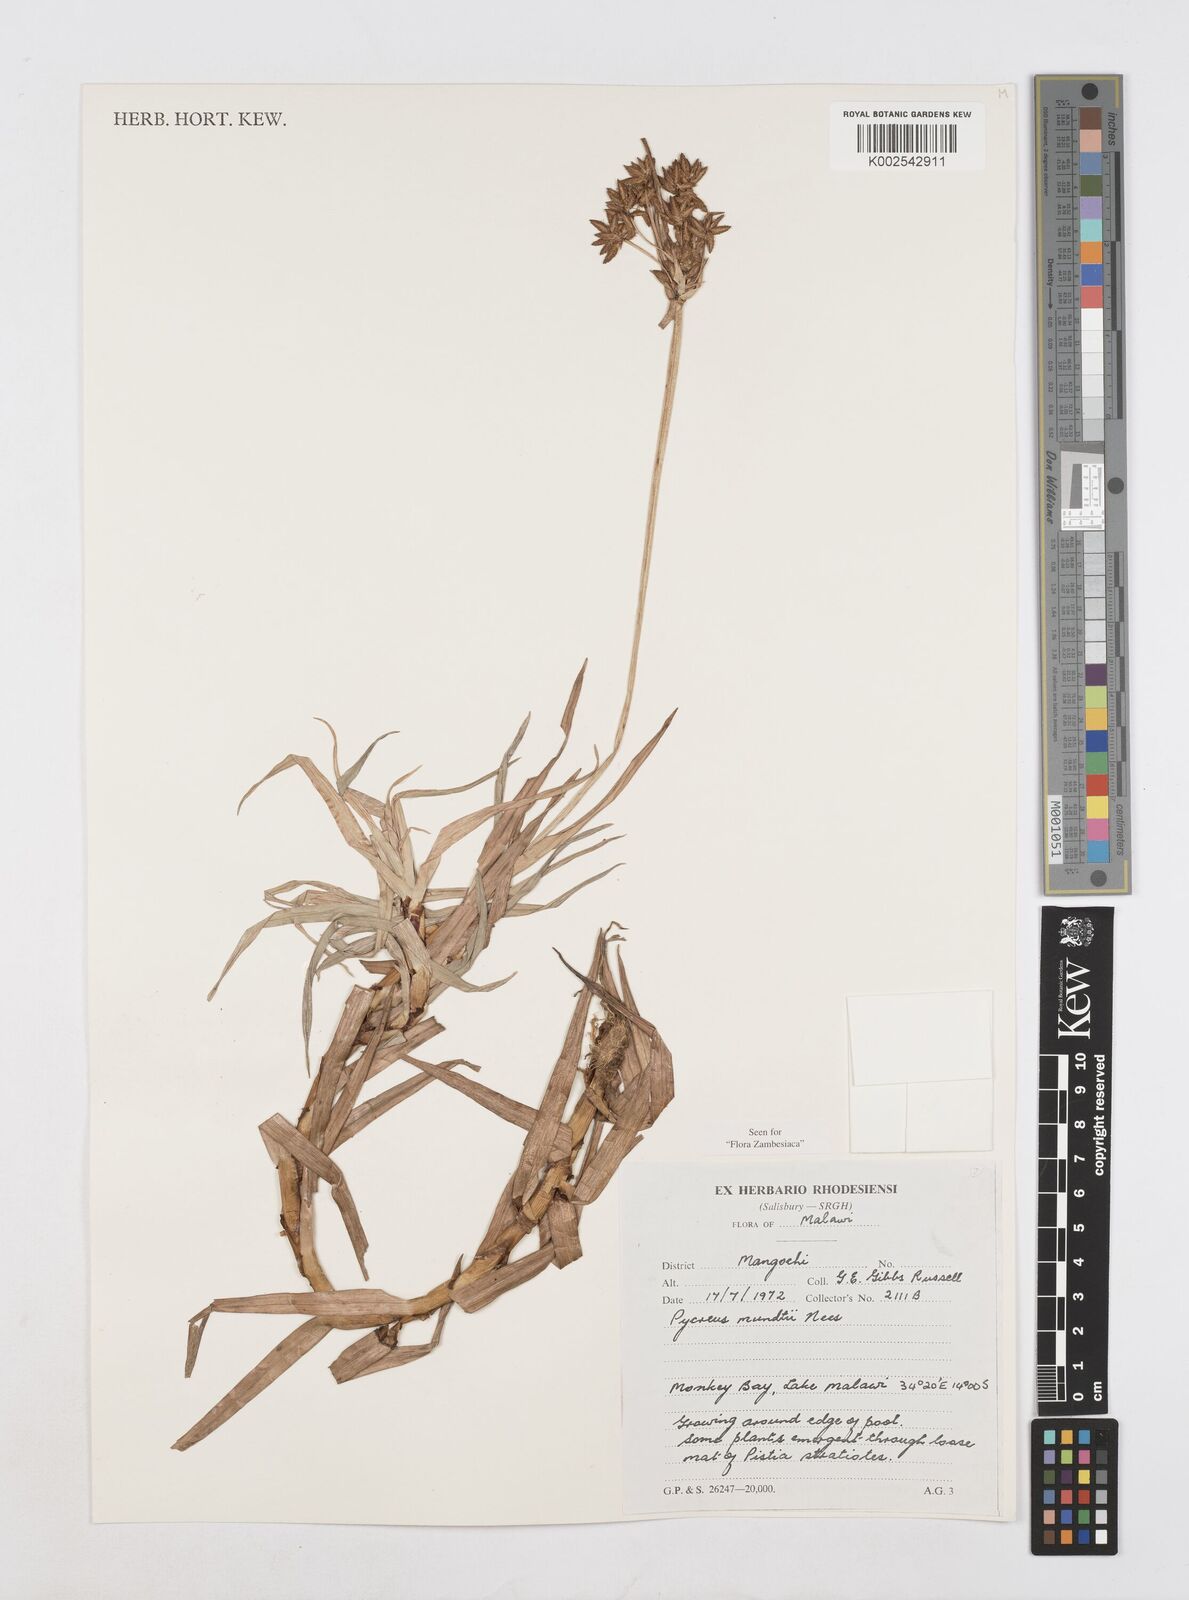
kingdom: Plantae
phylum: Tracheophyta
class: Liliopsida
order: Poales
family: Cyperaceae
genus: Cyperus
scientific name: Cyperus mundii
